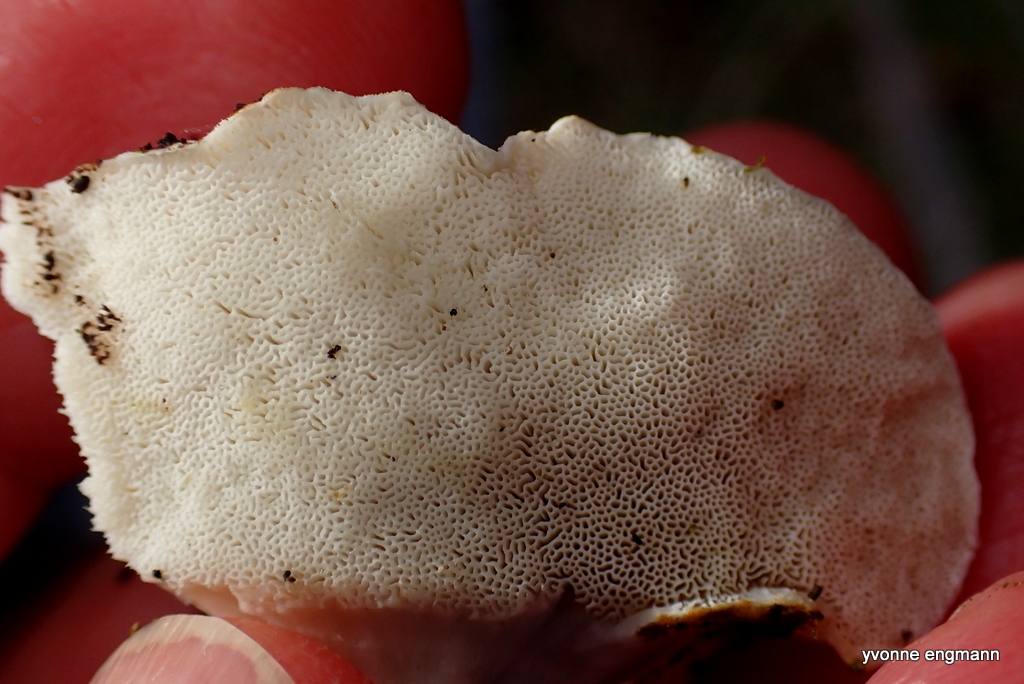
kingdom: Fungi
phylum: Basidiomycota
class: Agaricomycetes
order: Polyporales
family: Dacryobolaceae
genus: Postia
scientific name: Postia
